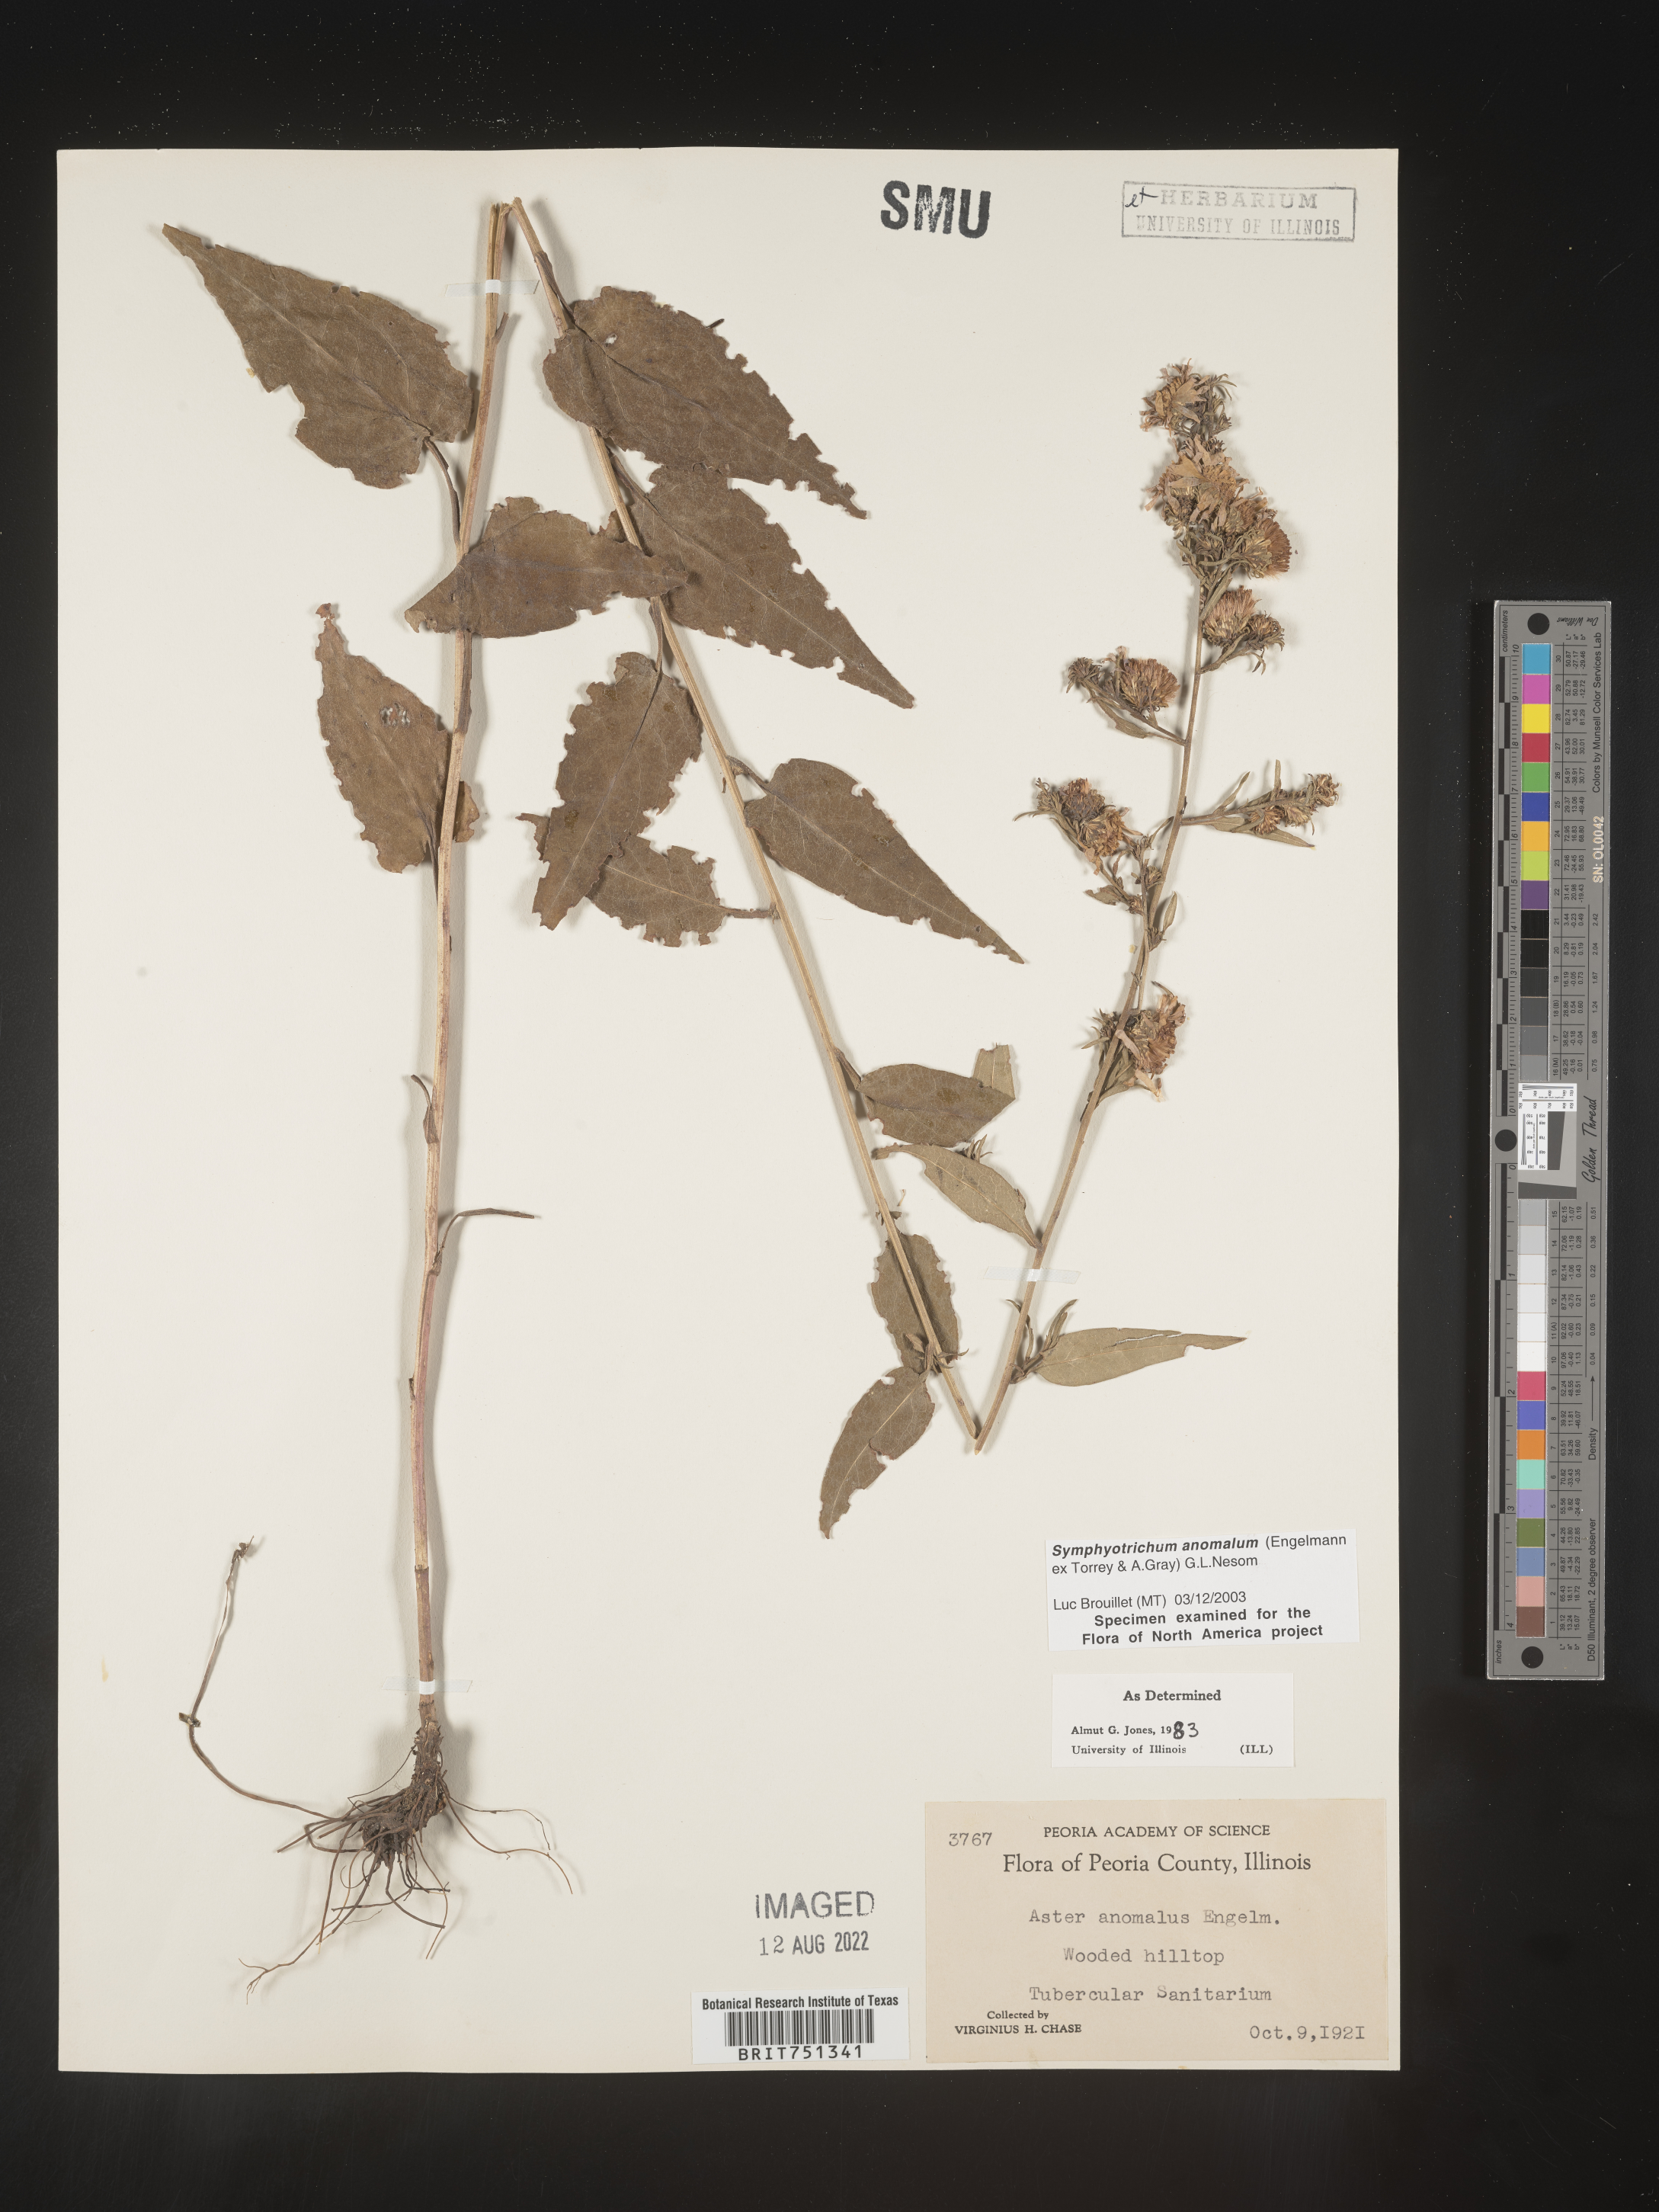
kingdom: Plantae
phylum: Tracheophyta
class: Magnoliopsida
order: Asterales
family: Asteraceae
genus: Symphyotrichum
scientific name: Symphyotrichum anomalum
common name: Many-ray aster
